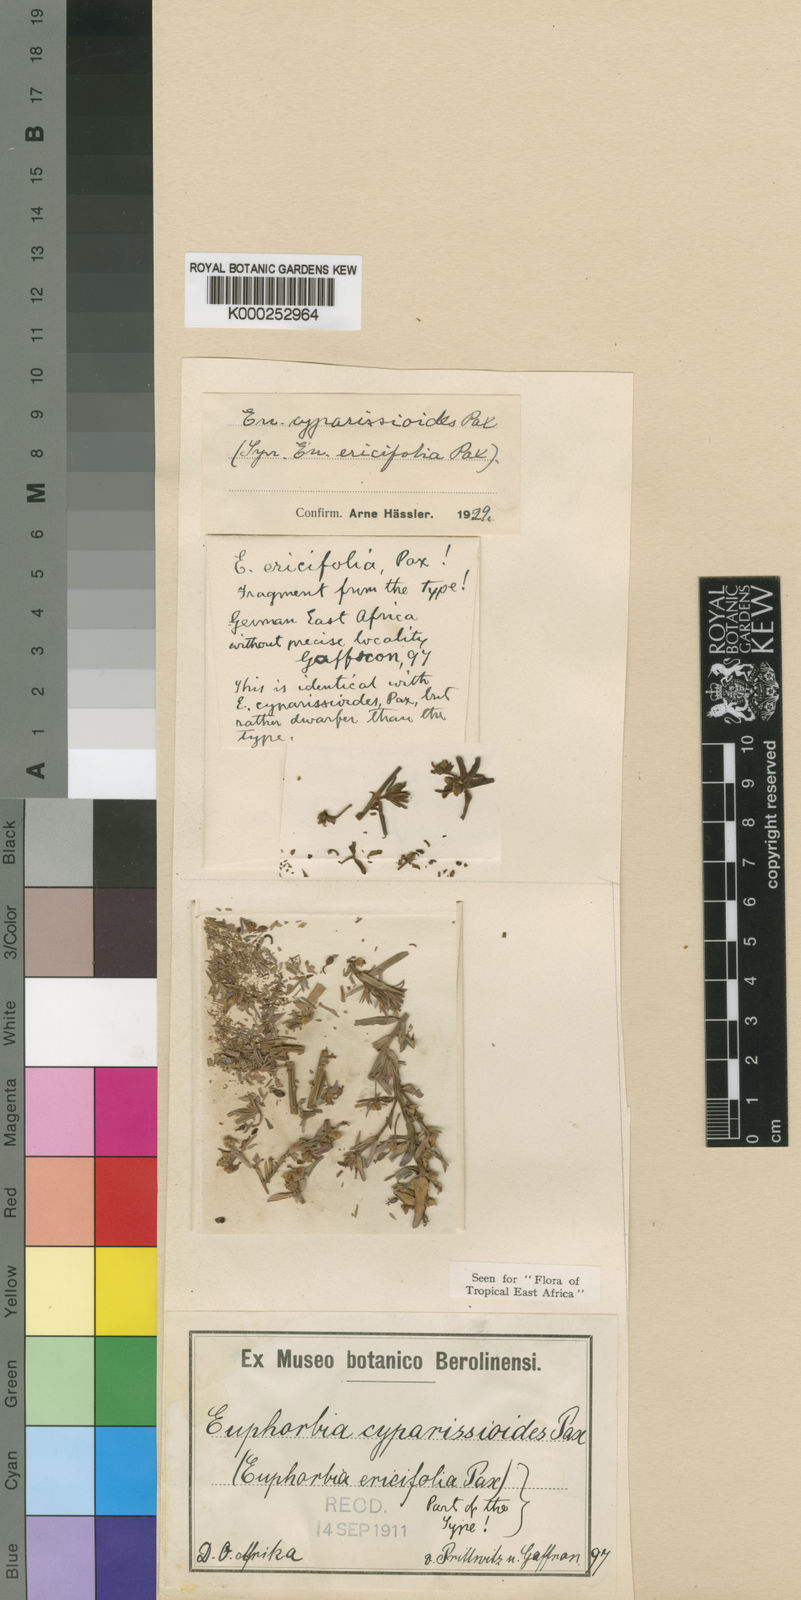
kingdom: Plantae
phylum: Tracheophyta
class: Magnoliopsida
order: Malpighiales
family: Euphorbiaceae
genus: Euphorbia
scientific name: Euphorbia cyparissioides
